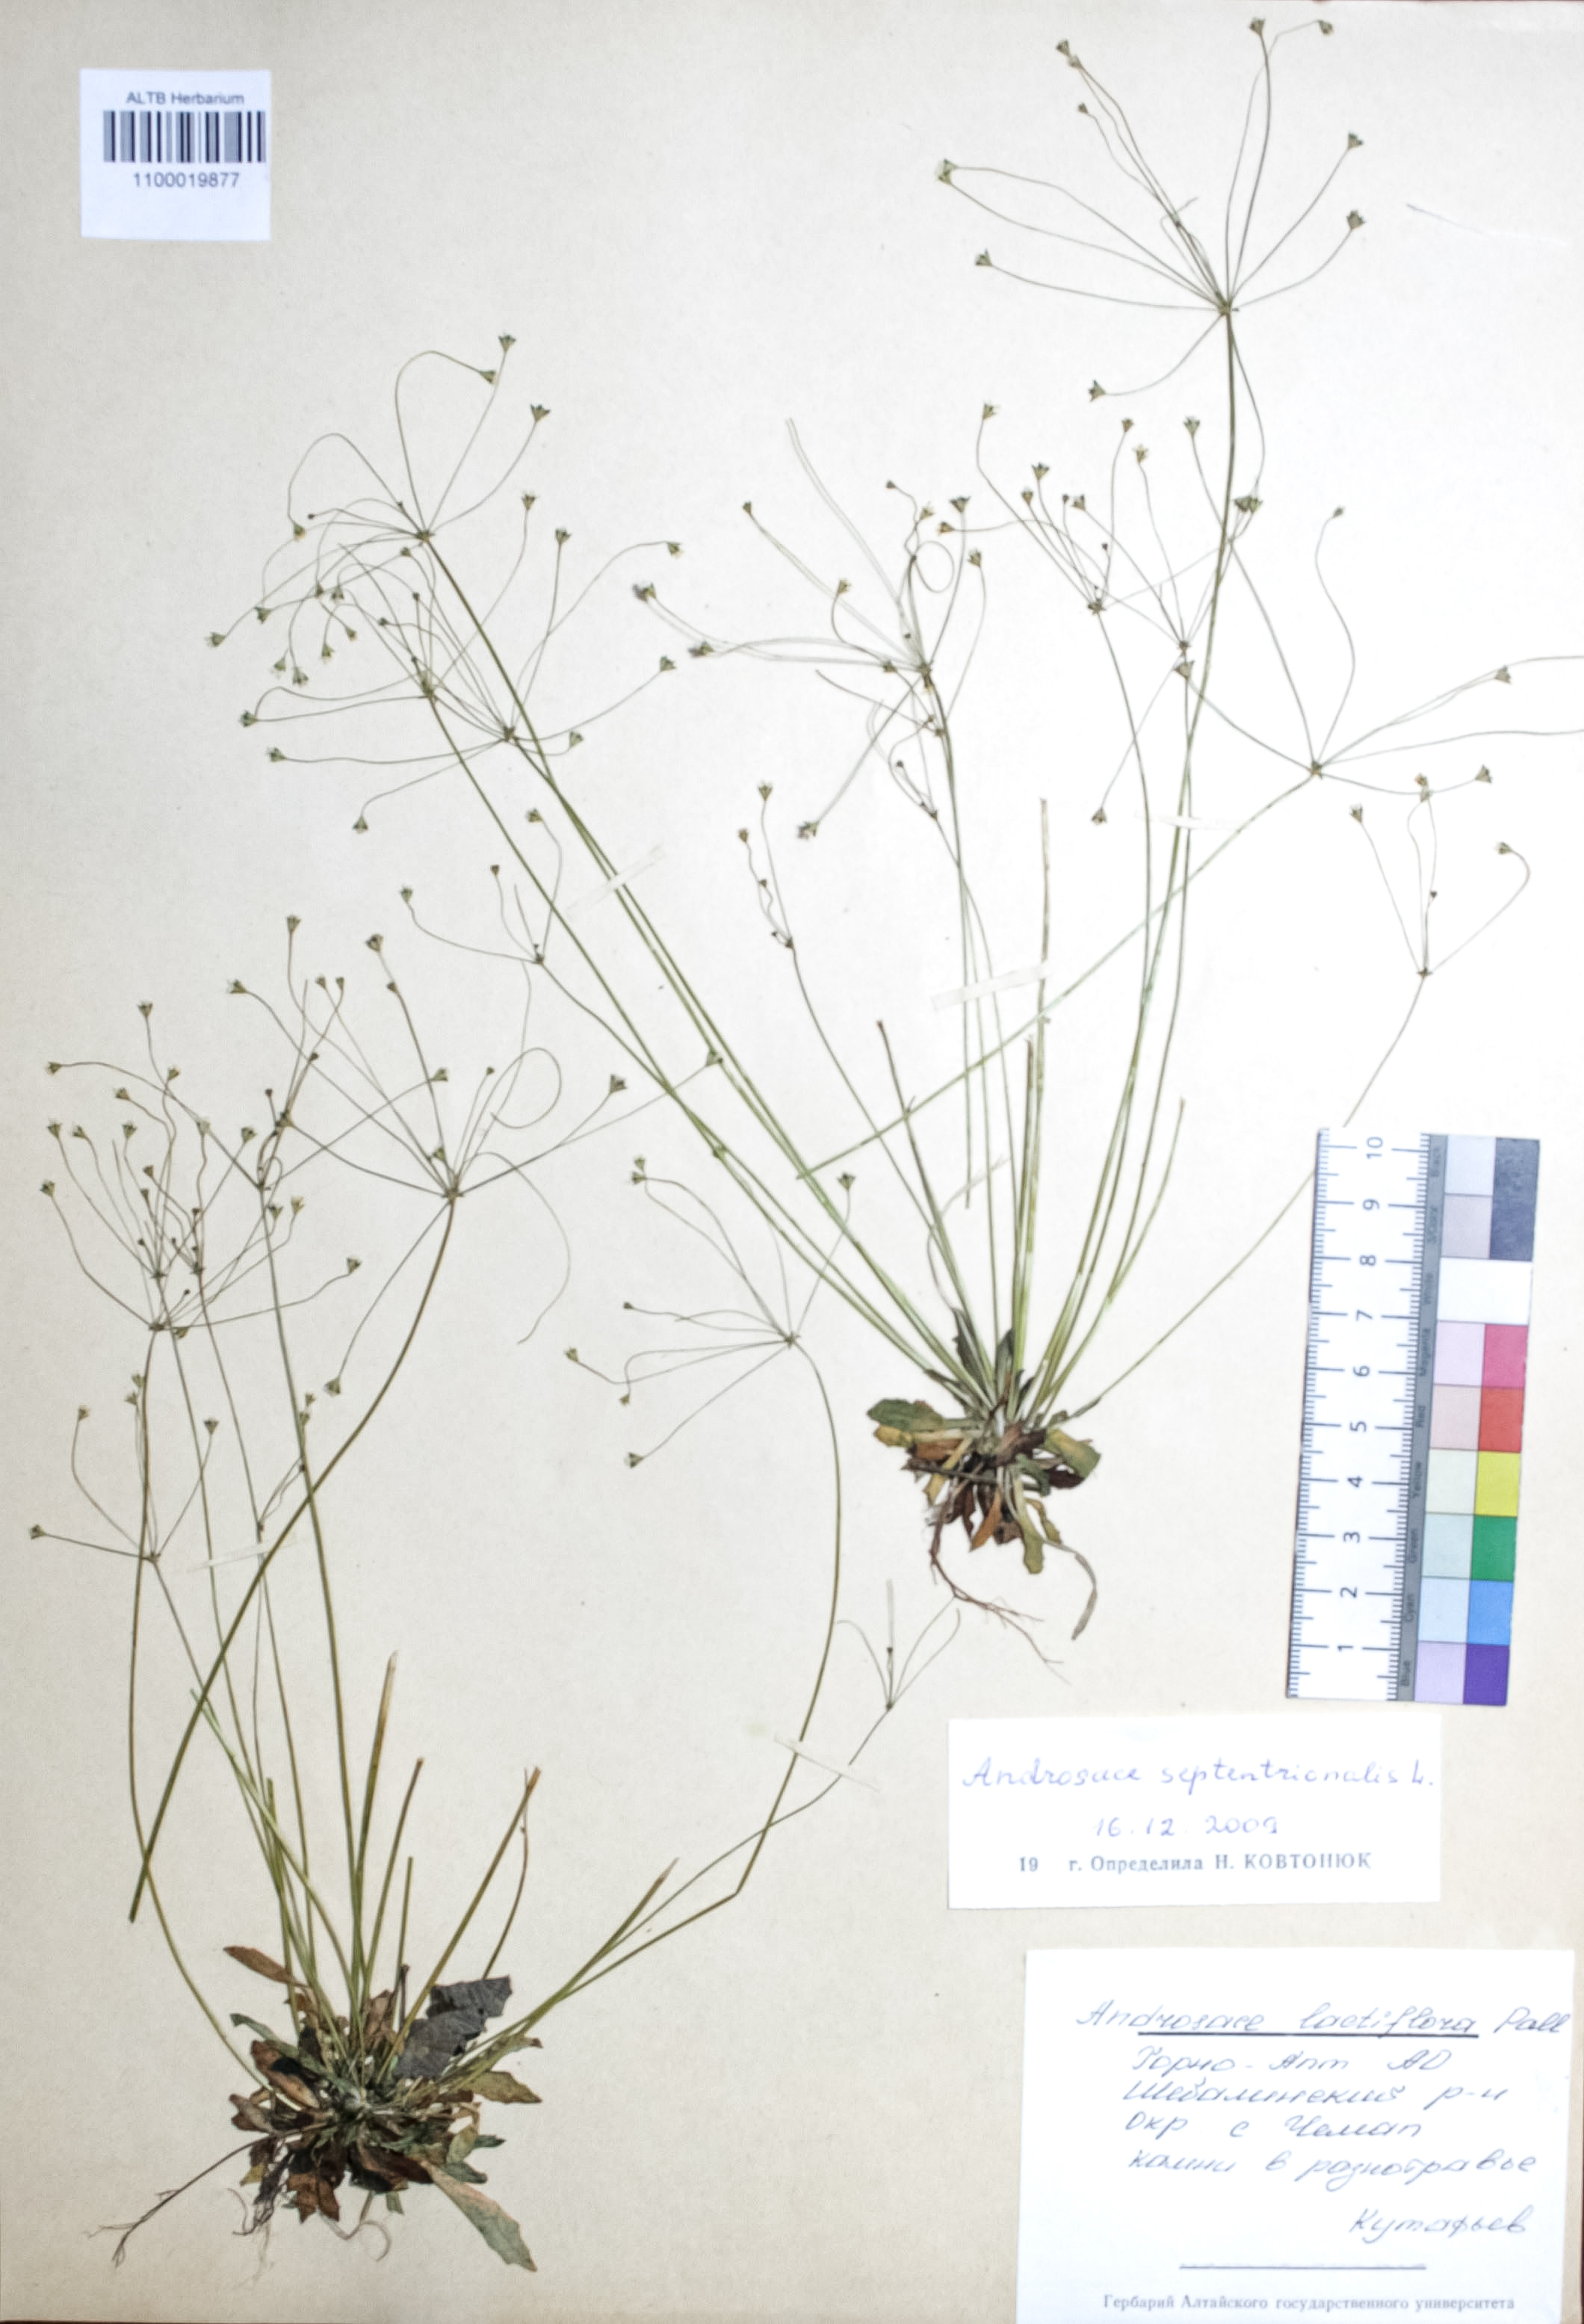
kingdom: Plantae
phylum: Tracheophyta
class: Magnoliopsida
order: Ericales
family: Primulaceae
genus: Androsace
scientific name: Androsace septentrionalis
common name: Hairy northern fairy-candelabra
